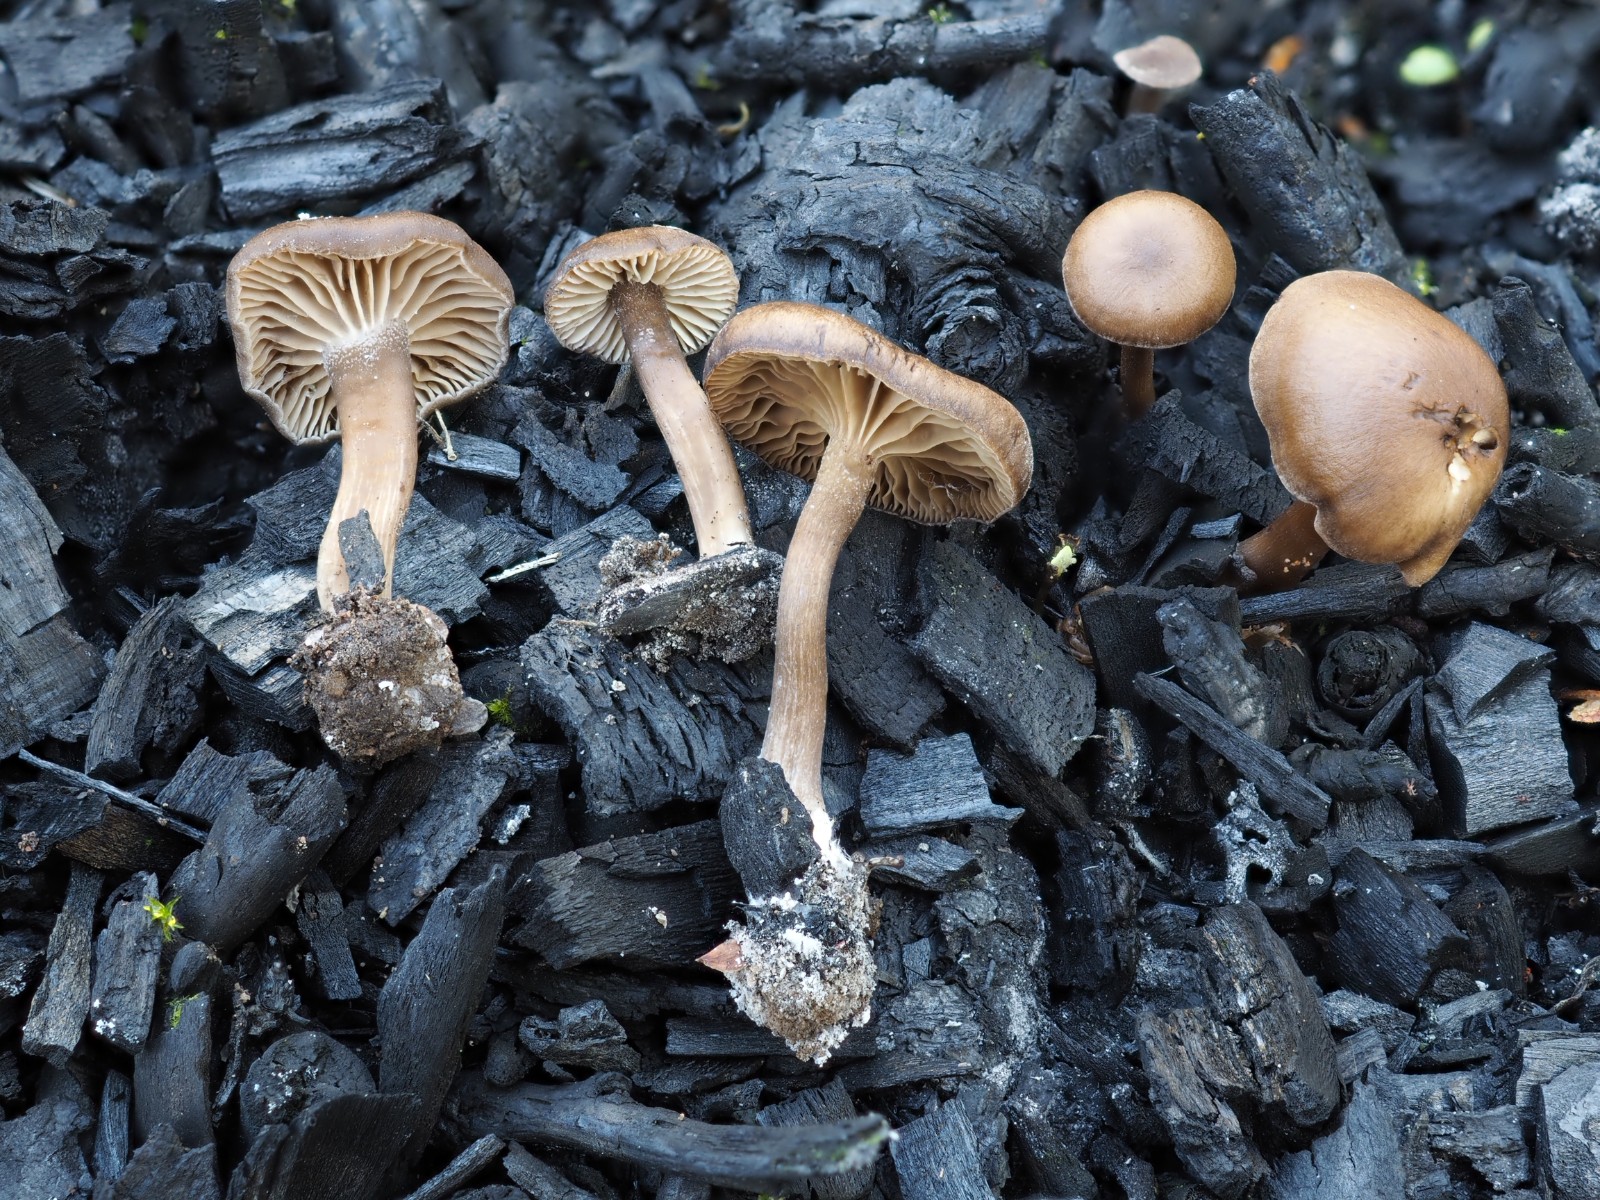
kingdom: Fungi
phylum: Basidiomycota
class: Agaricomycetes
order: Agaricales
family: Lyophyllaceae
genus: Tephrocybe
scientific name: Tephrocybe ambusta
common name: kul-gråblad
